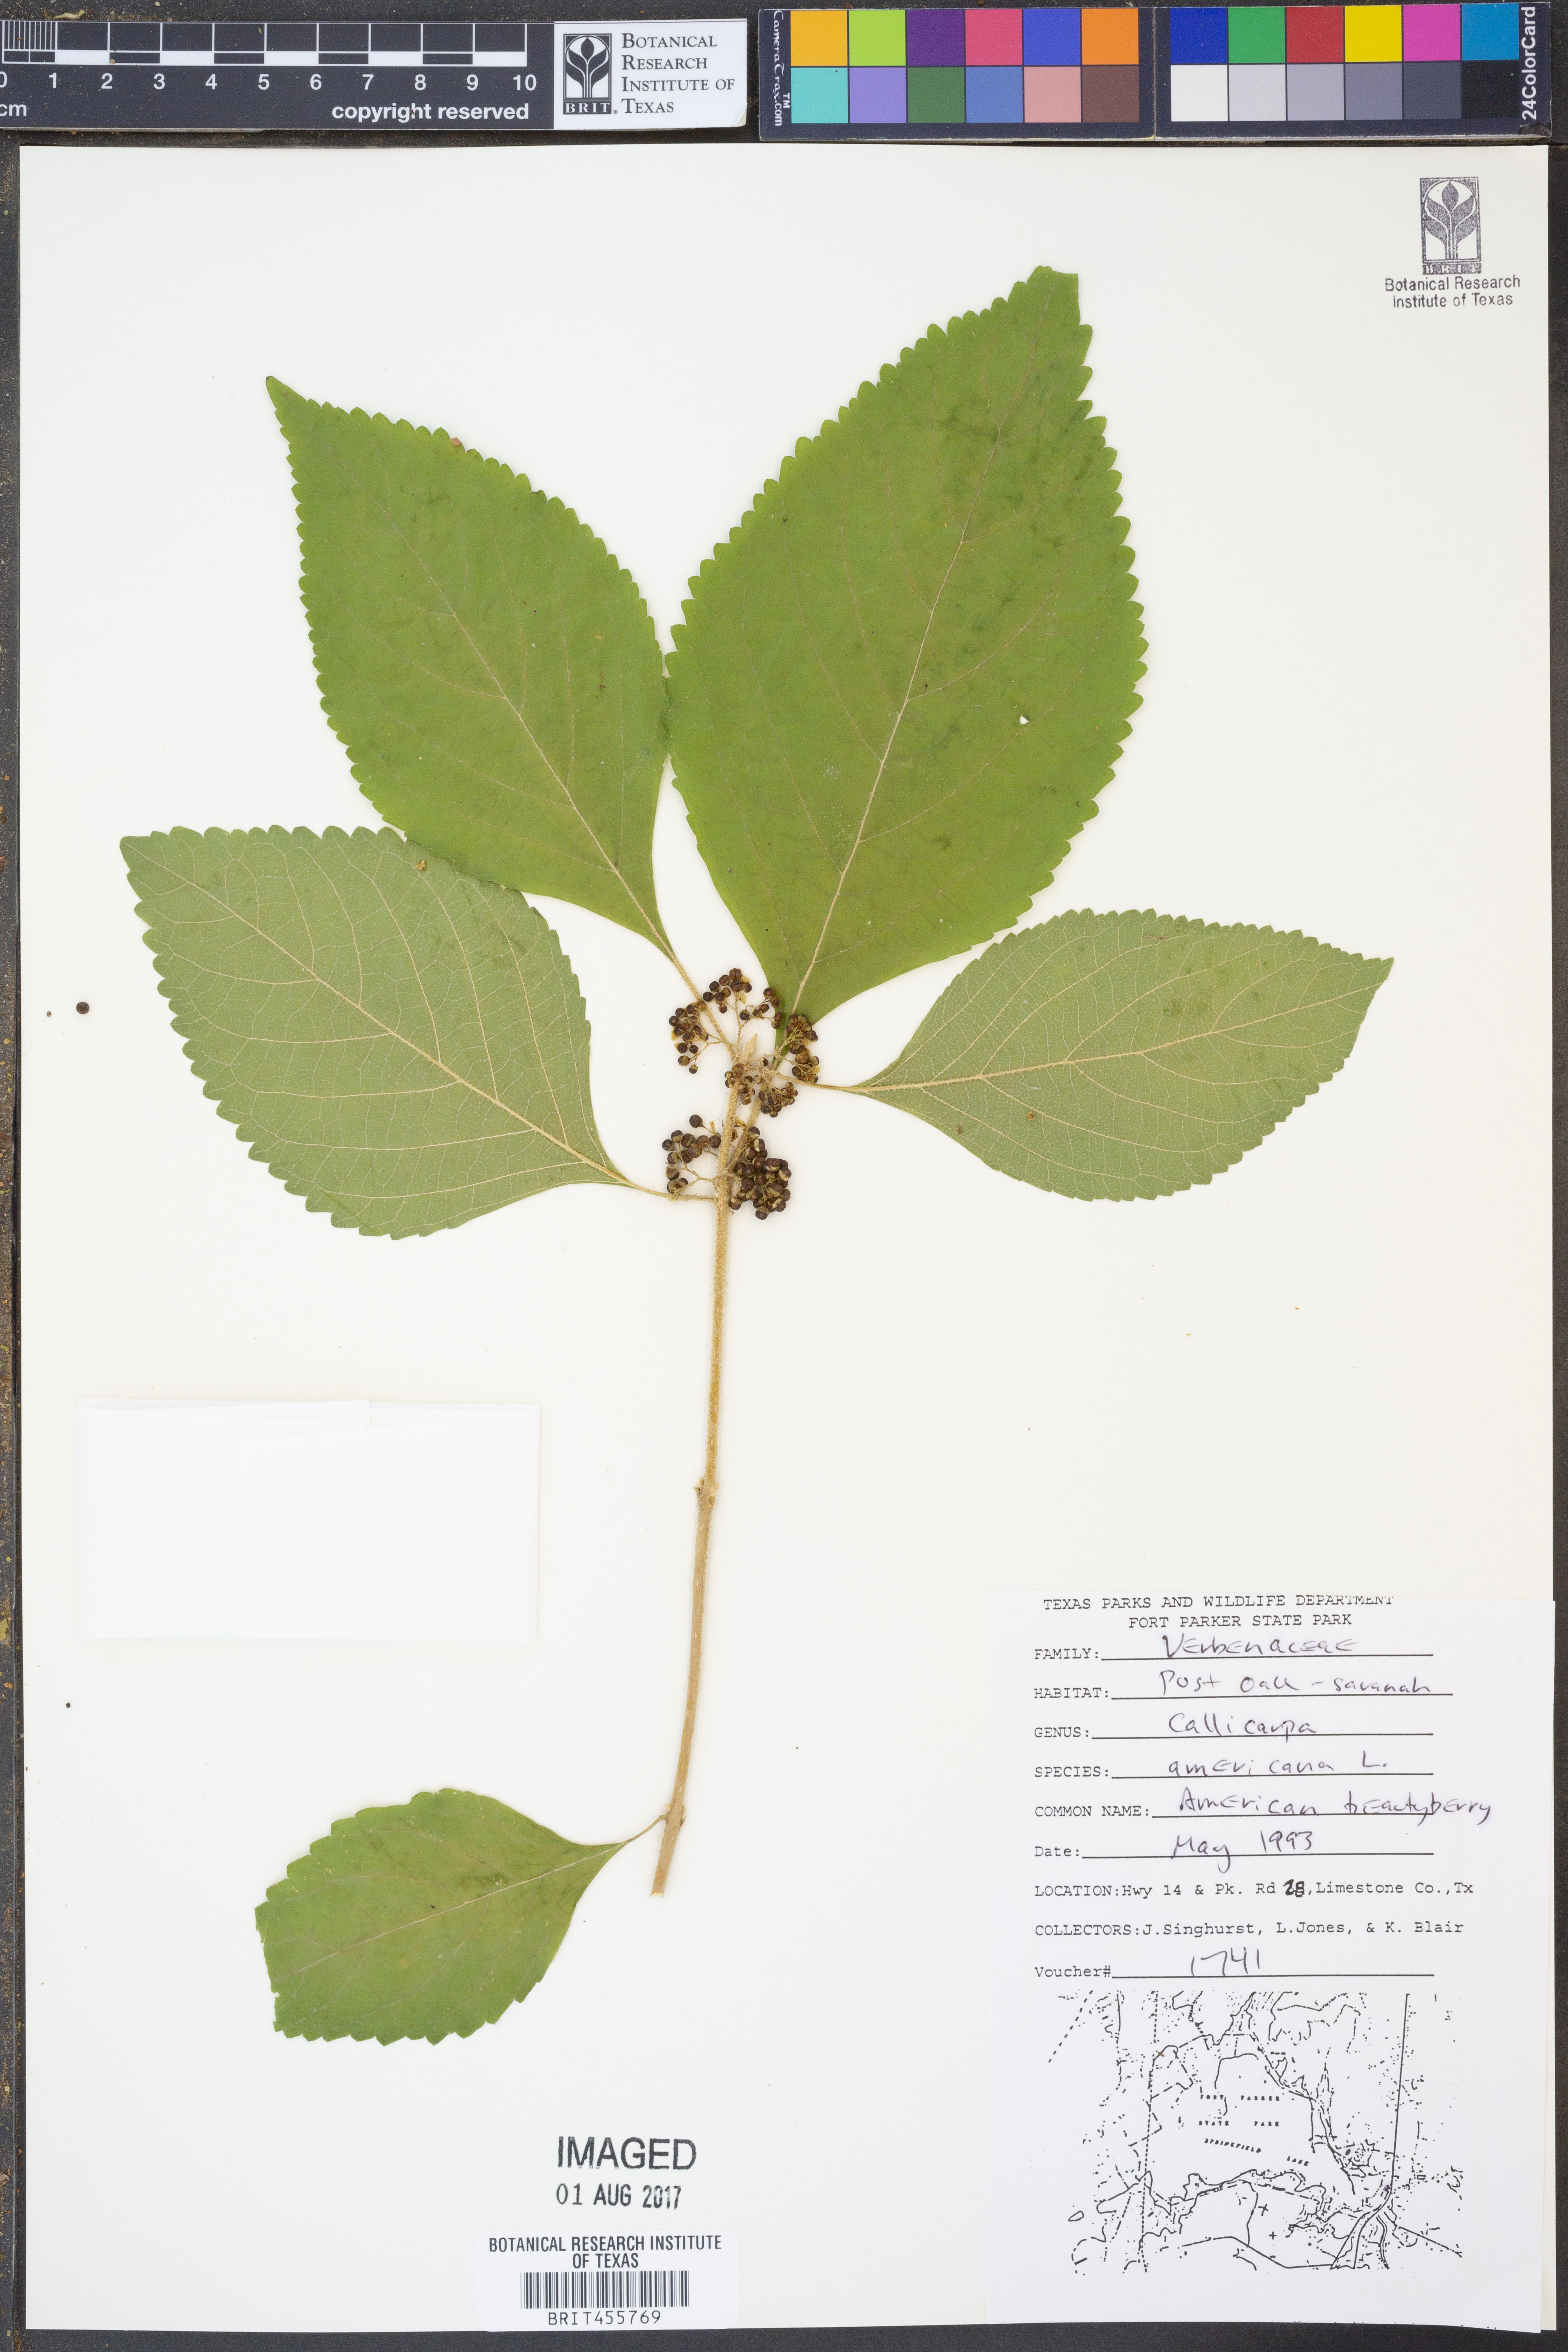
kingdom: Plantae
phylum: Tracheophyta
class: Magnoliopsida
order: Lamiales
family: Lamiaceae
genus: Callicarpa
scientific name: Callicarpa americana
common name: American beautyberry
